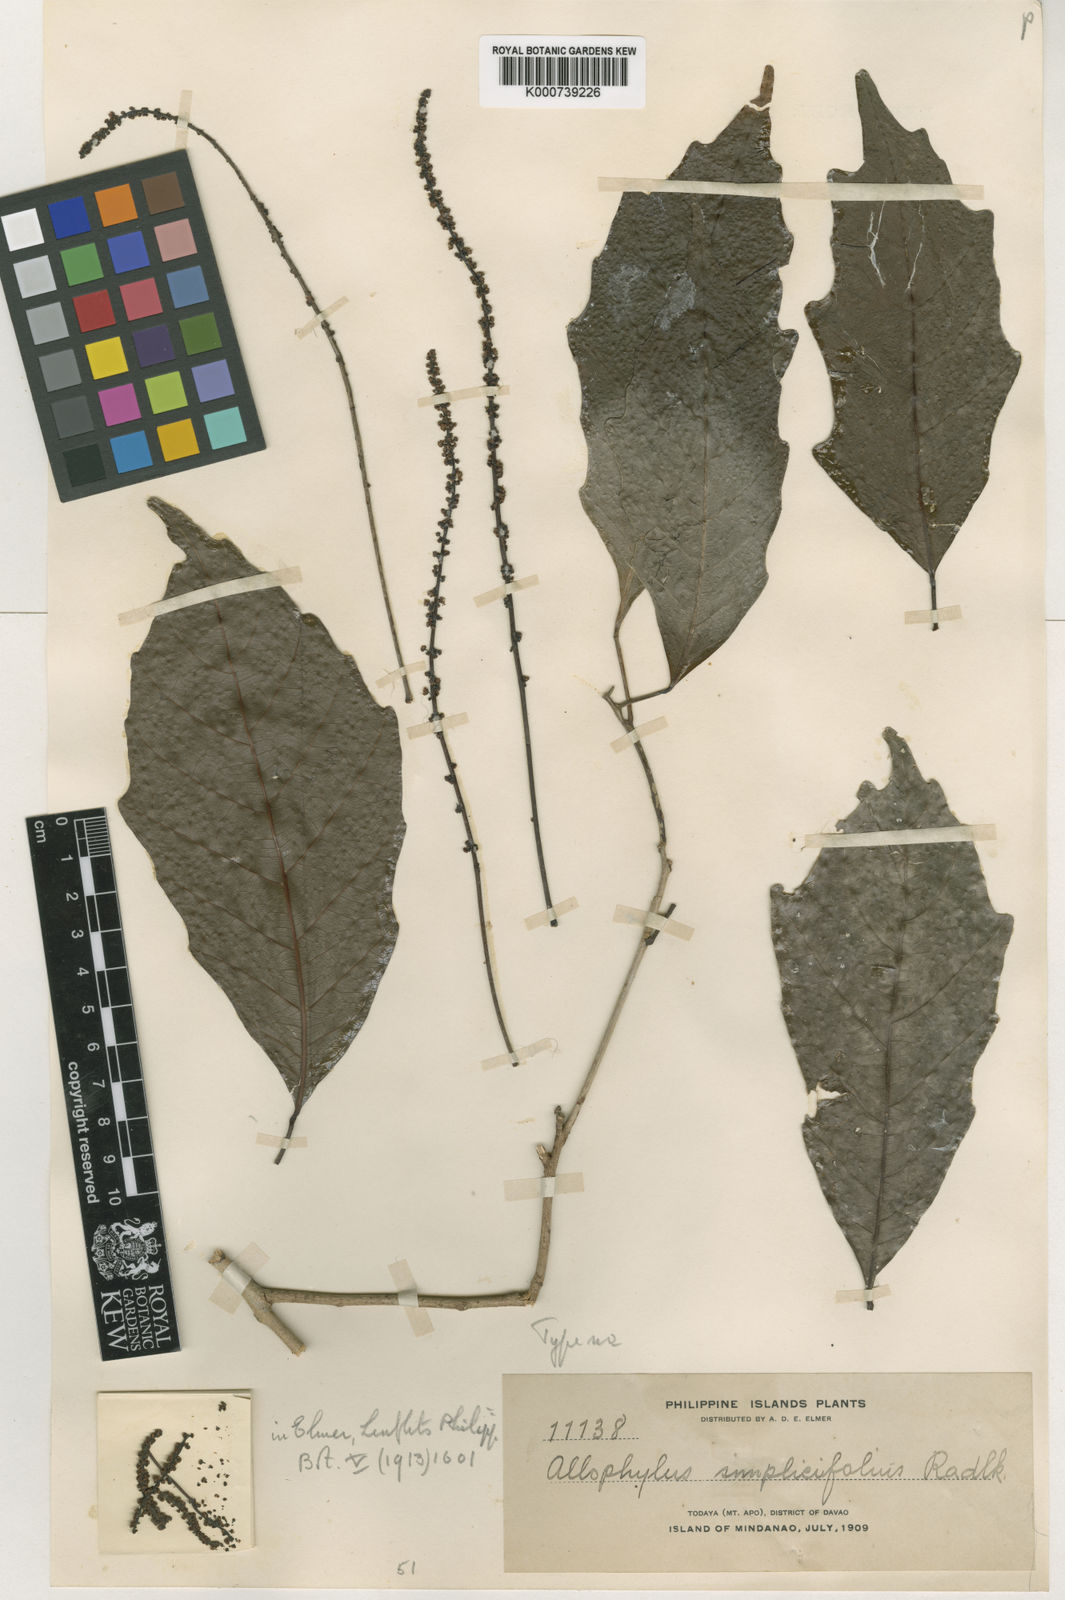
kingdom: Plantae
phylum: Tracheophyta
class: Magnoliopsida
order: Sapindales
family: Sapindaceae
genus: Allophylus
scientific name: Allophylus simplicifolius
